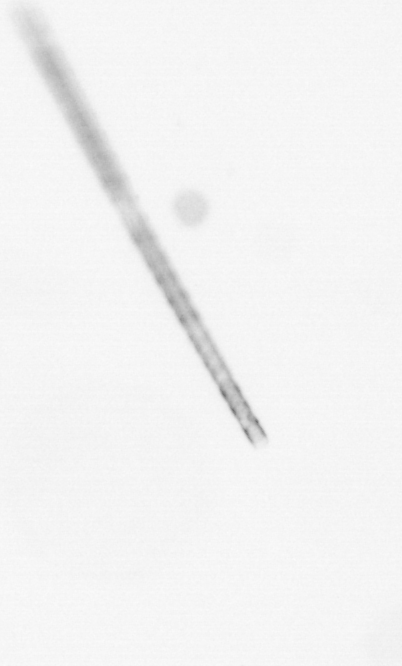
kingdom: Chromista
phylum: Ochrophyta
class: Bacillariophyceae
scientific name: Bacillariophyceae
